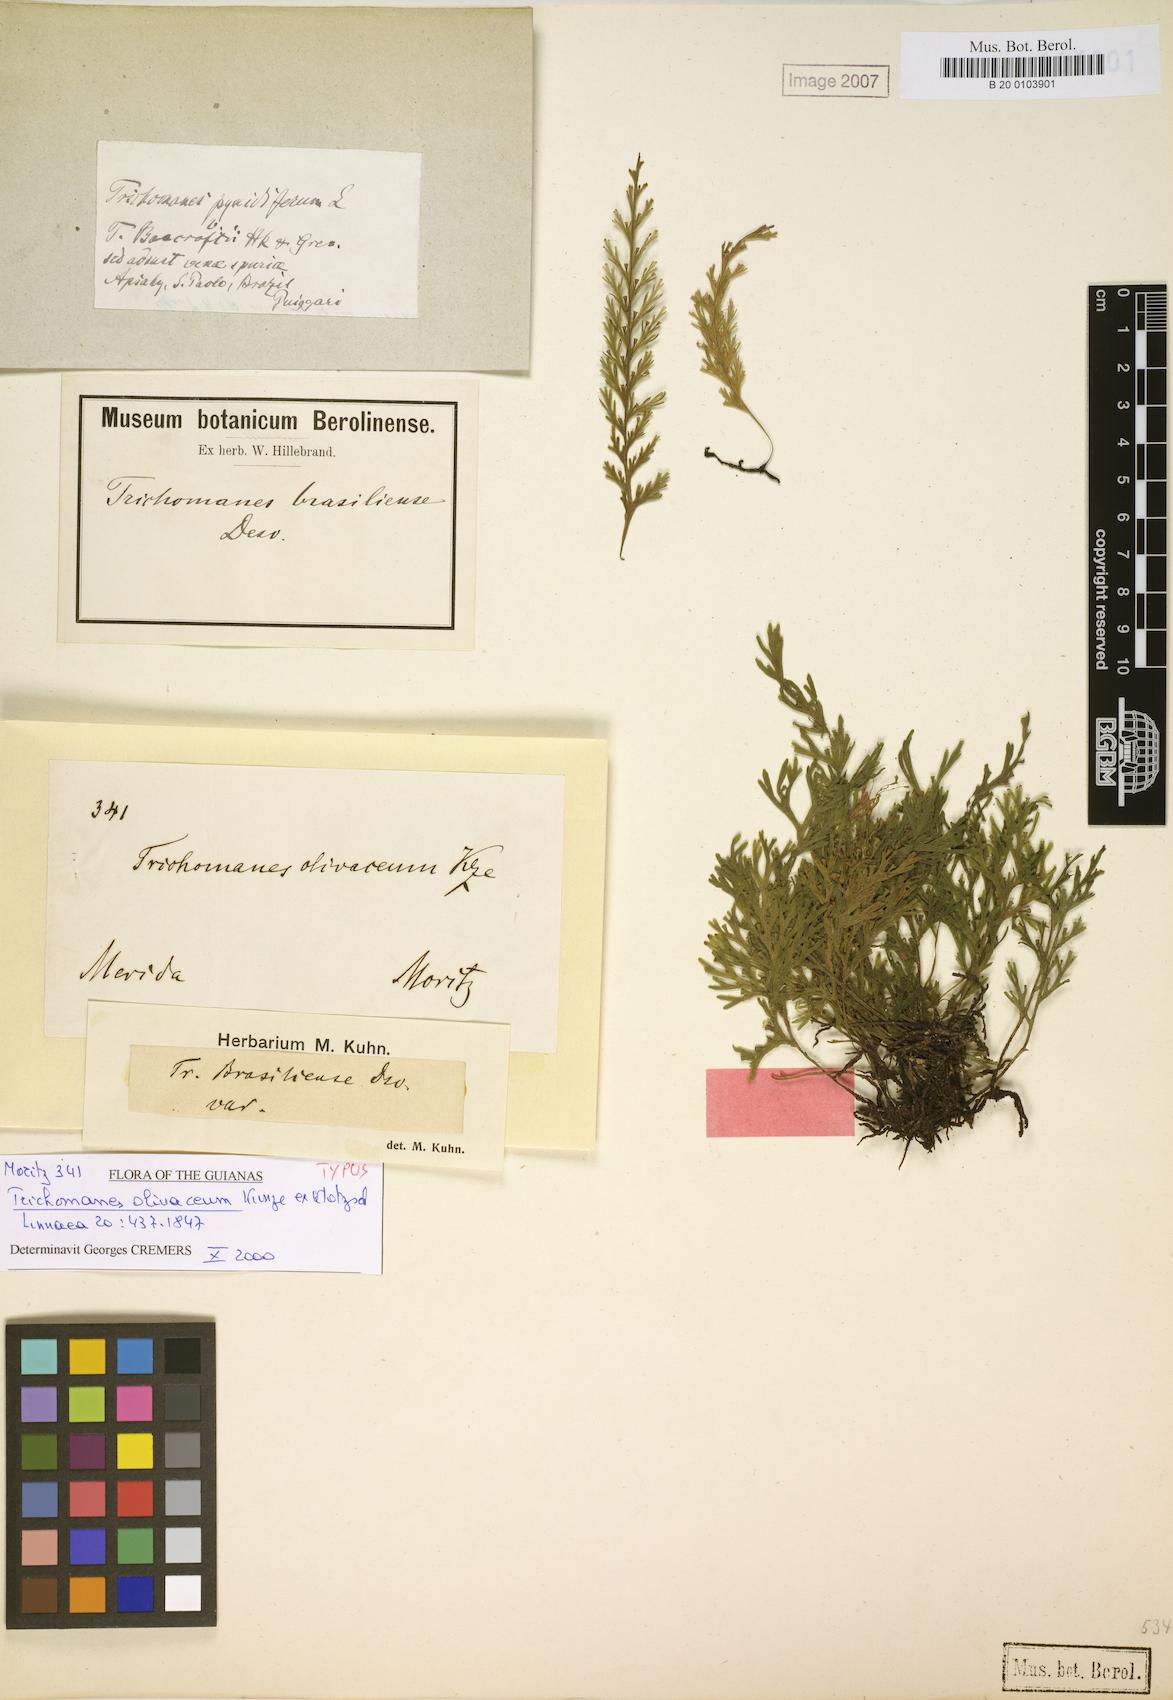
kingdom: Plantae
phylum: Tracheophyta
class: Polypodiopsida
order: Hymenophyllales
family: Hymenophyllaceae
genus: Polyphlebium
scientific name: Polyphlebium pyxidiferum
